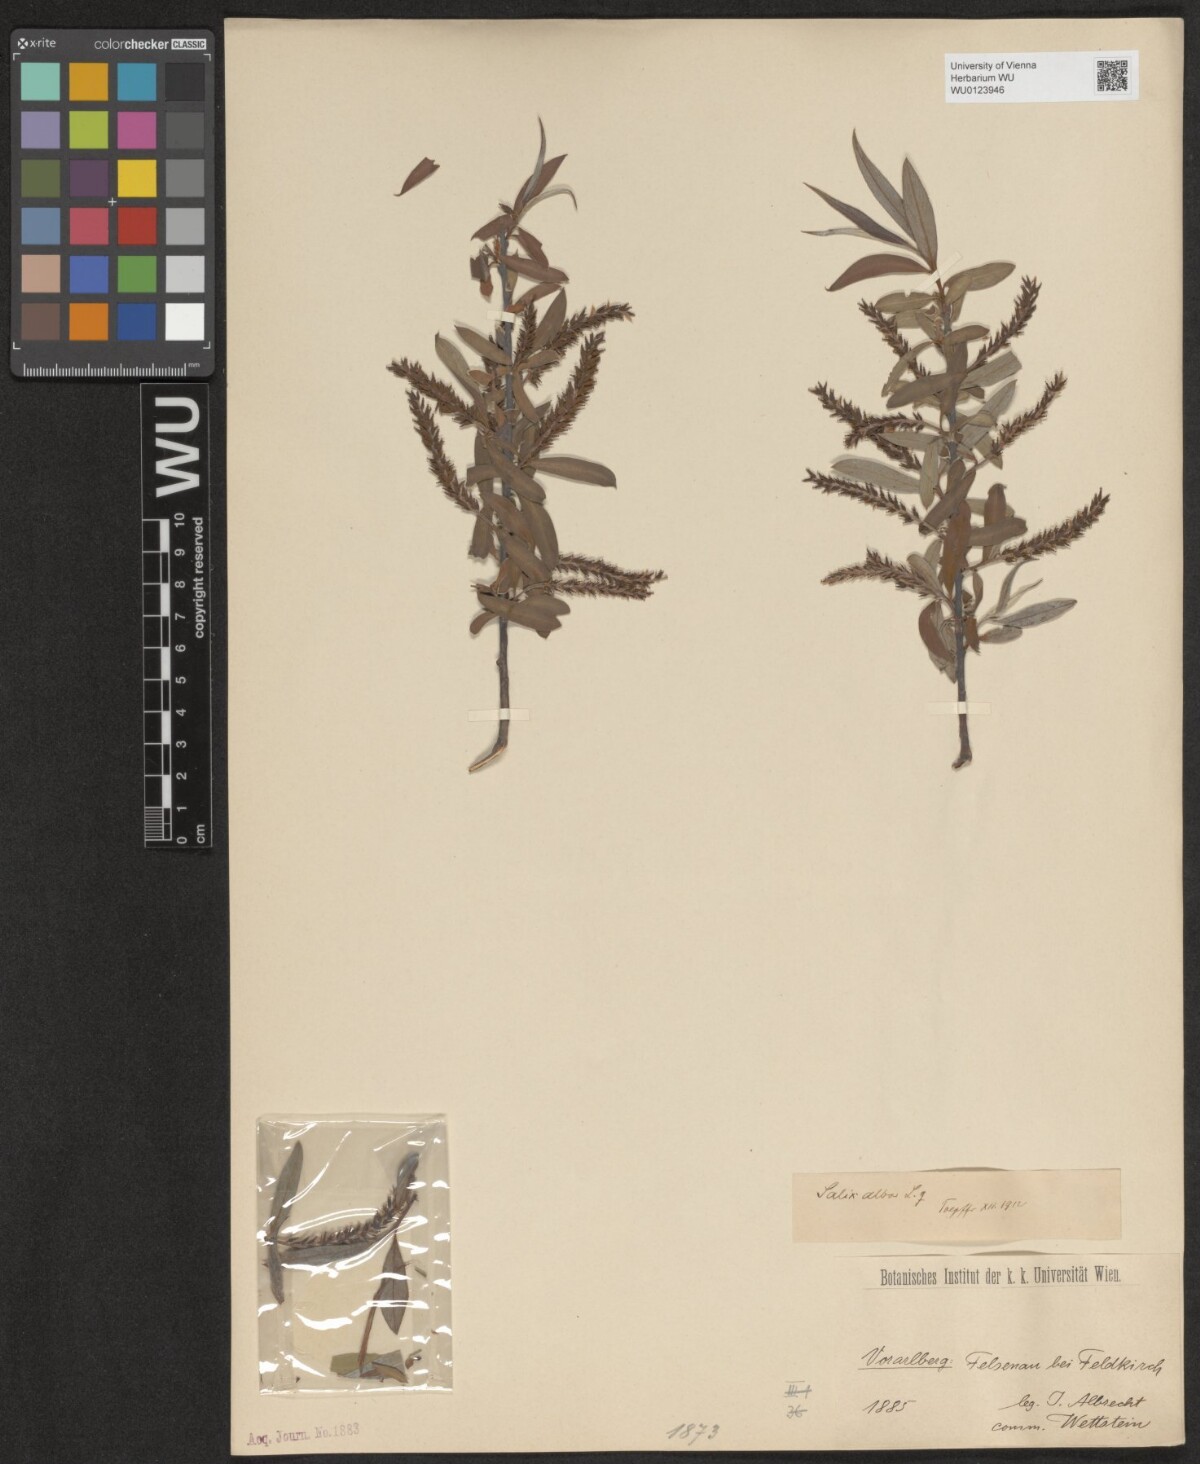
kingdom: Plantae
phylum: Tracheophyta
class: Magnoliopsida
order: Malpighiales
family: Salicaceae
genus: Salix
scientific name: Salix alba
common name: White willow
